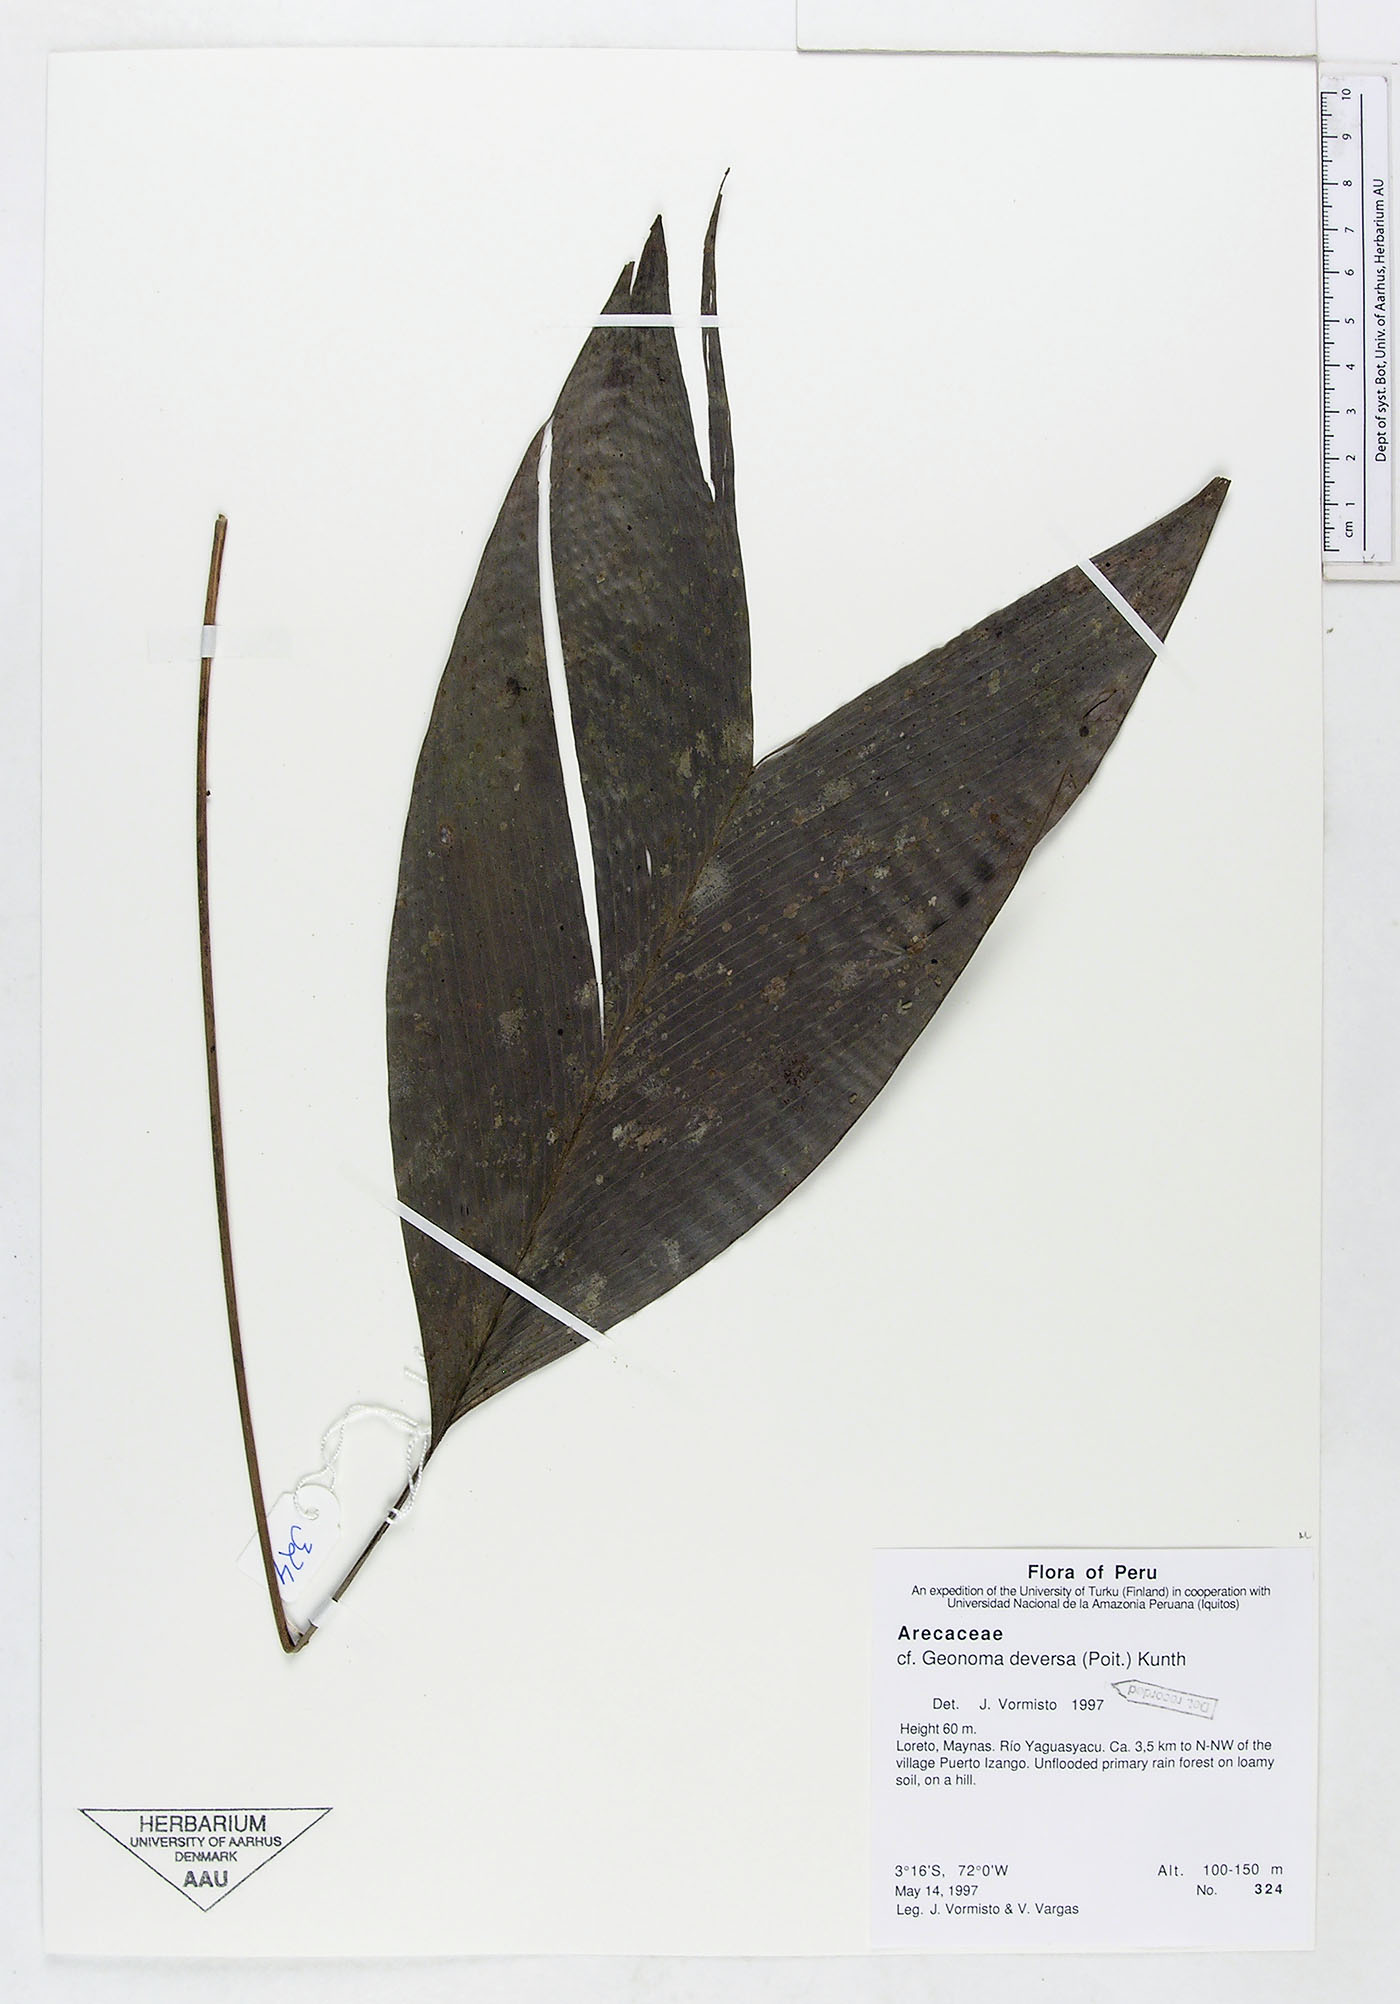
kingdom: Plantae
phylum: Tracheophyta
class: Liliopsida
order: Arecales
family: Arecaceae
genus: Geonoma
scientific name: Geonoma deversa
